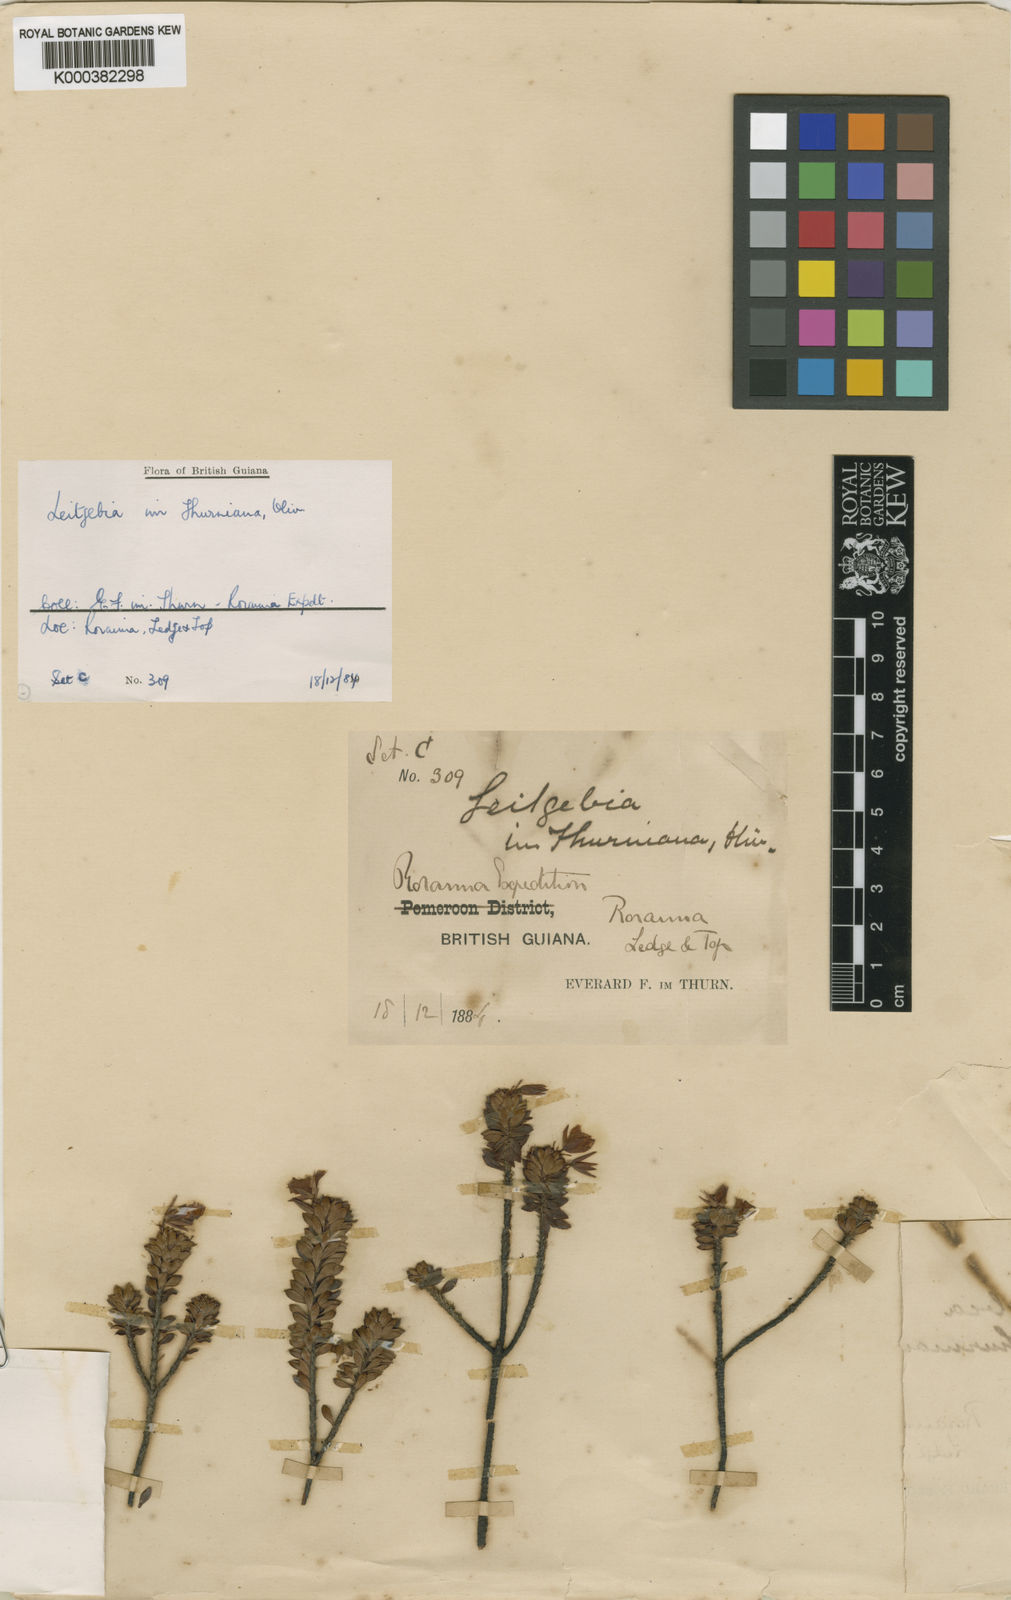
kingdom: Plantae
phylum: Tracheophyta
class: Magnoliopsida
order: Malpighiales
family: Ochnaceae
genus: Sauvagesia
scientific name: Sauvagesia imthurniana
